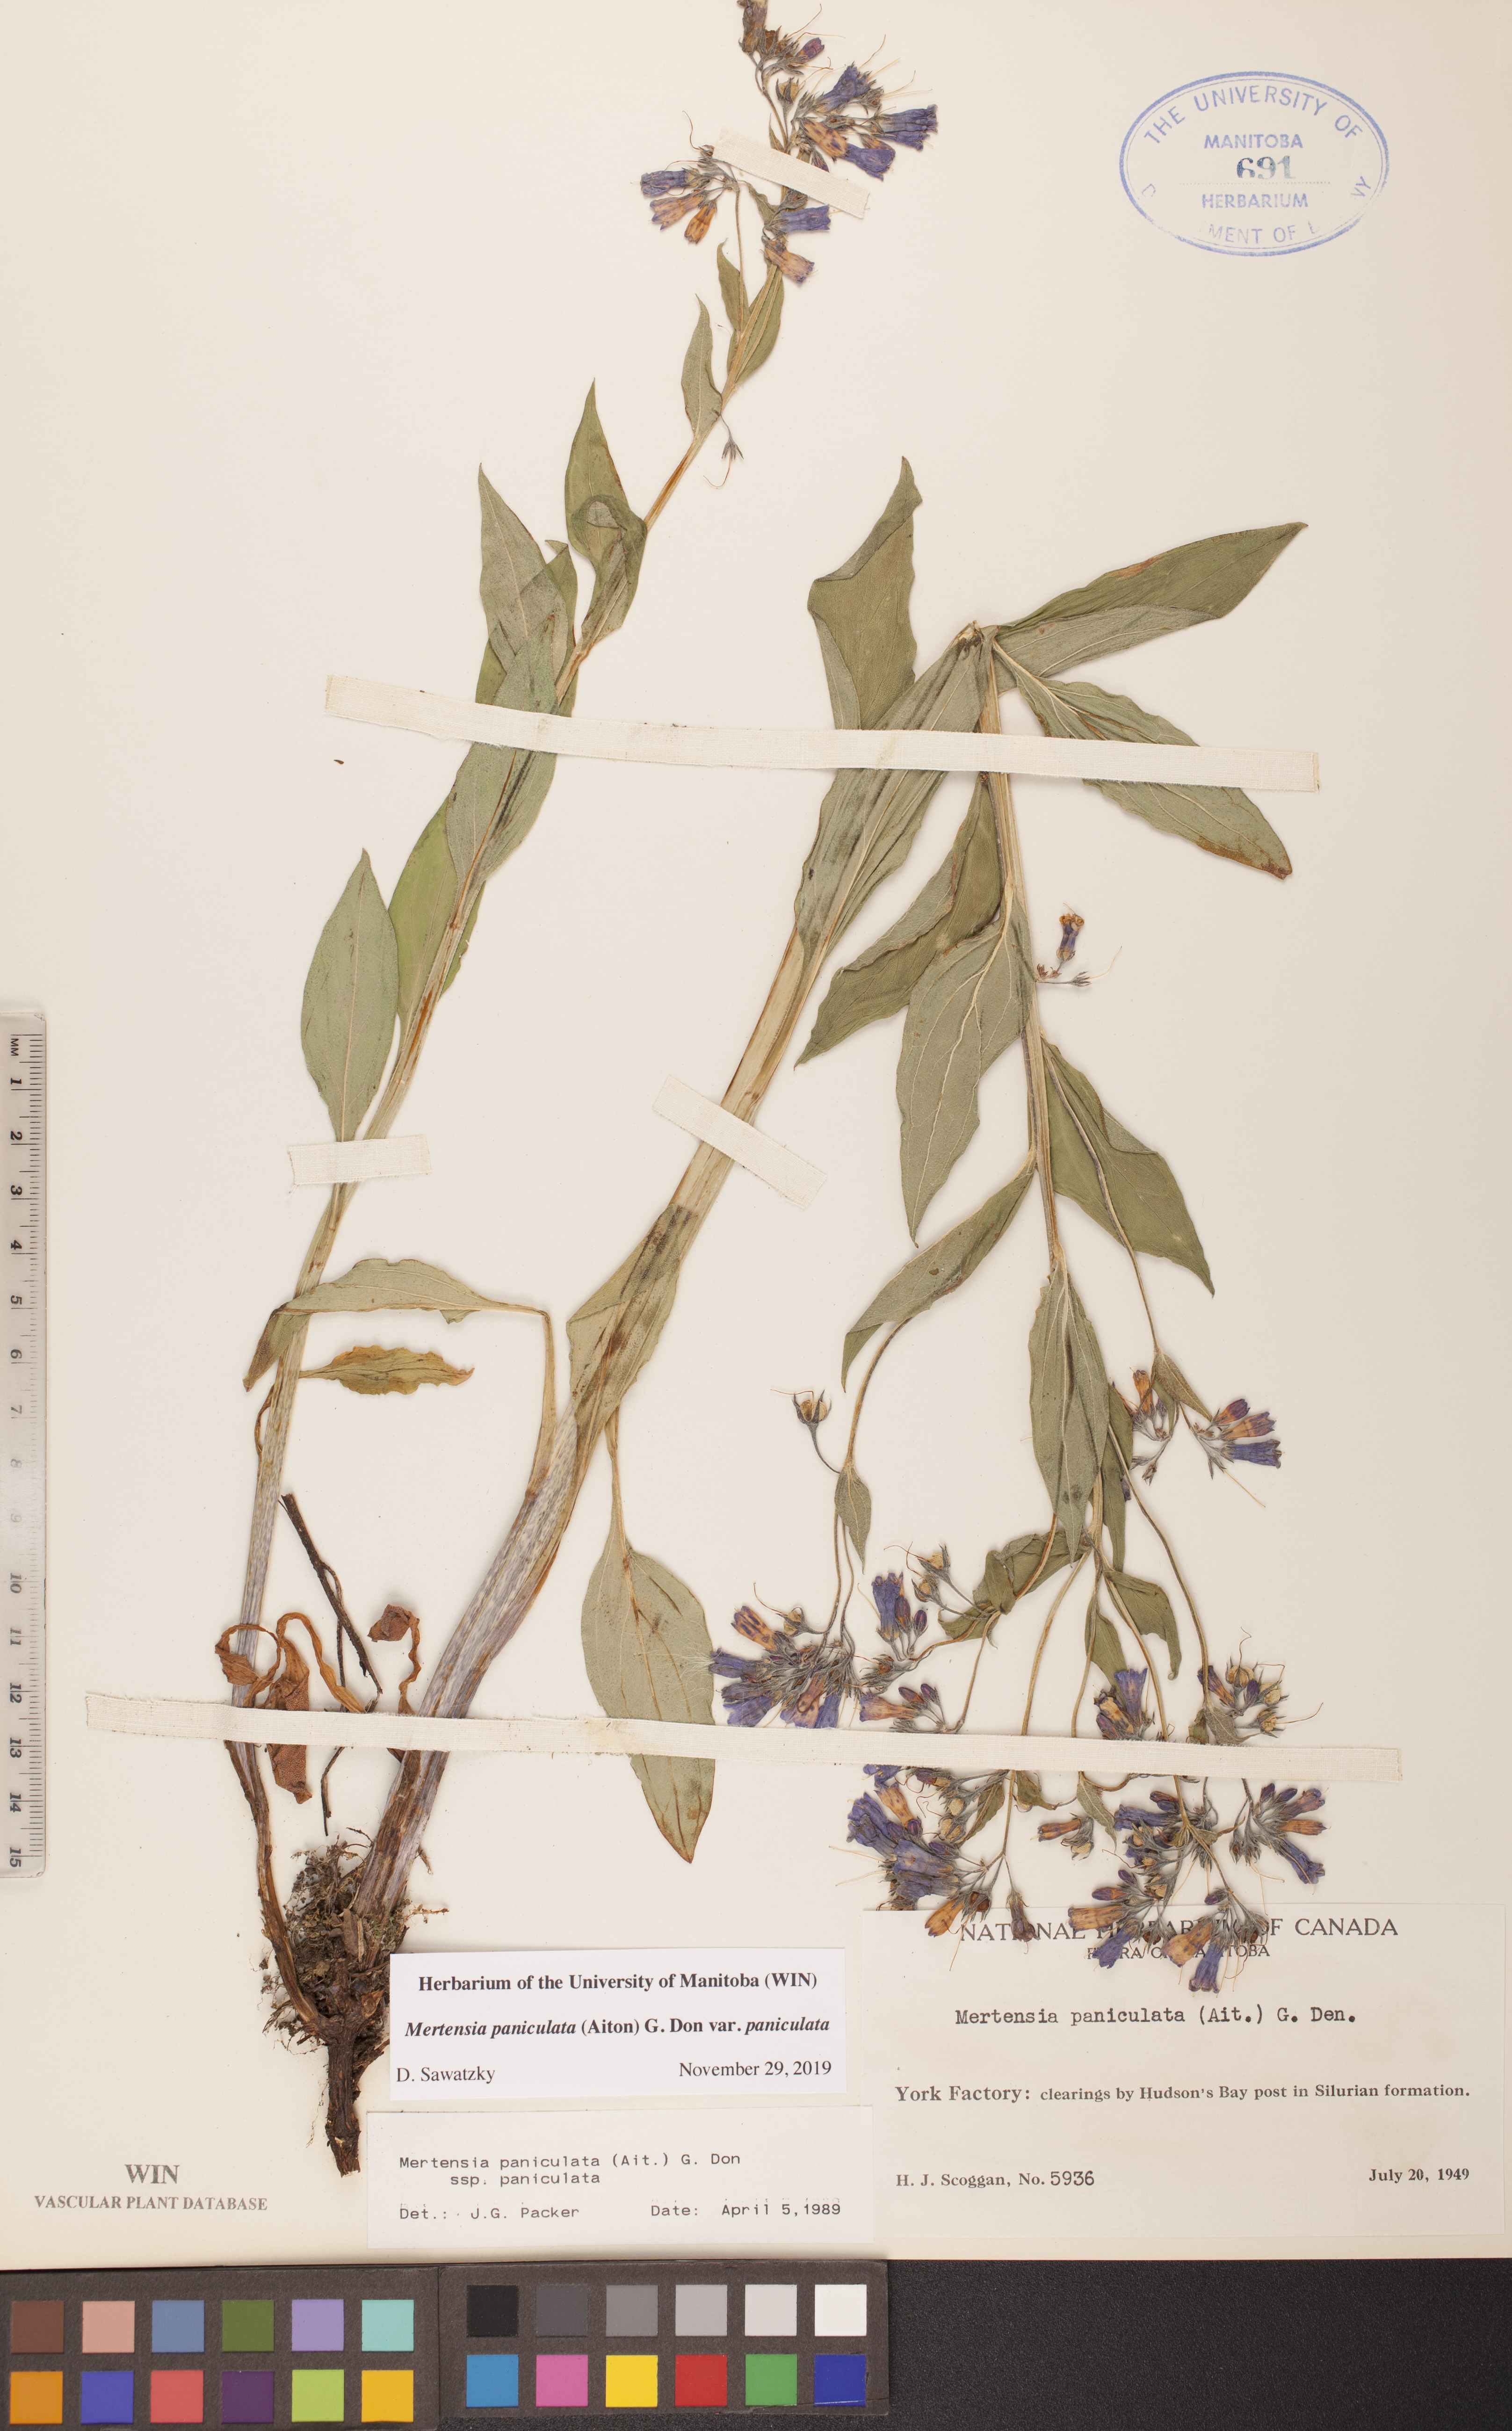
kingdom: Plantae
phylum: Tracheophyta
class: Magnoliopsida
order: Boraginales
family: Boraginaceae
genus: Mertensia
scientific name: Mertensia paniculata
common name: Panicled bluebells
